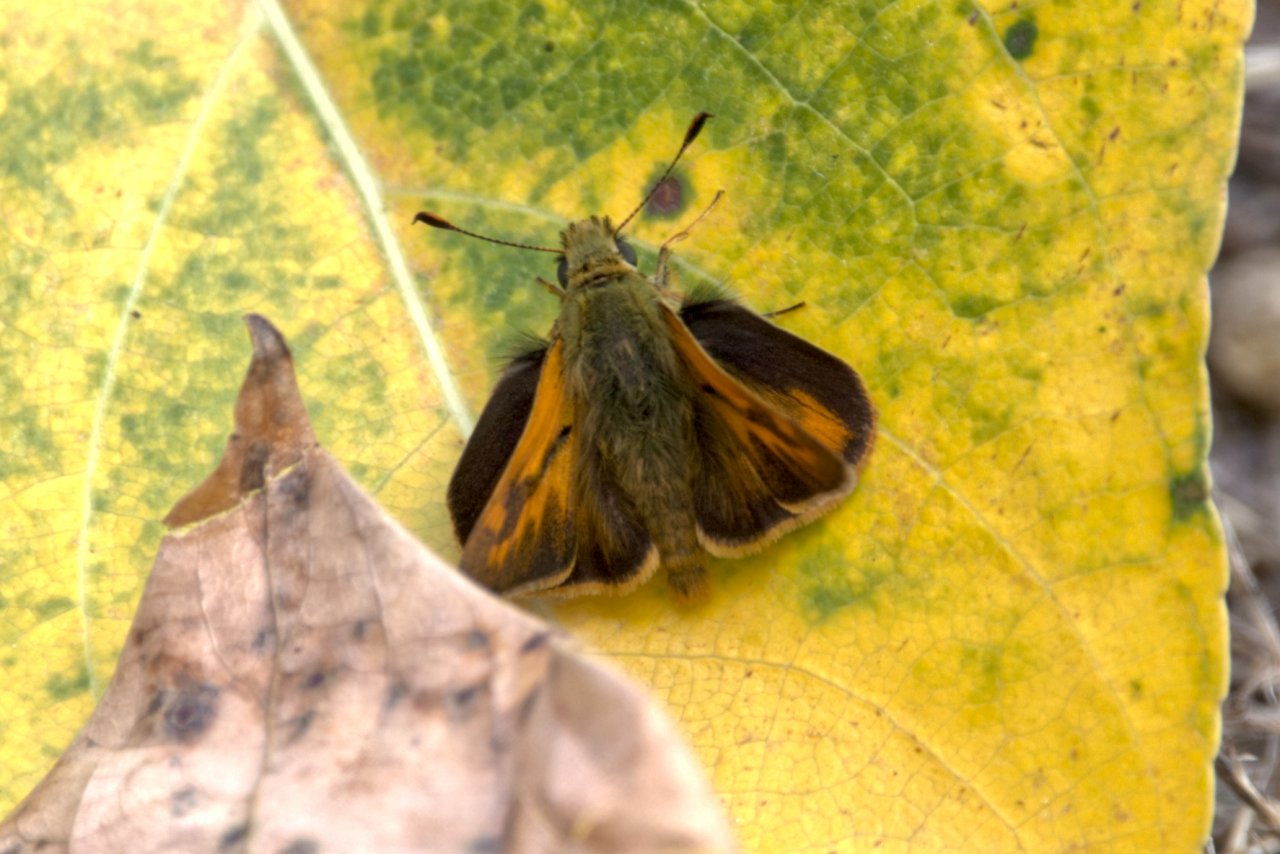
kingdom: Animalia
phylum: Arthropoda
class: Insecta
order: Lepidoptera
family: Hesperiidae
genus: Ochlodes
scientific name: Ochlodes sylvanoides
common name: Woodland Skipper
